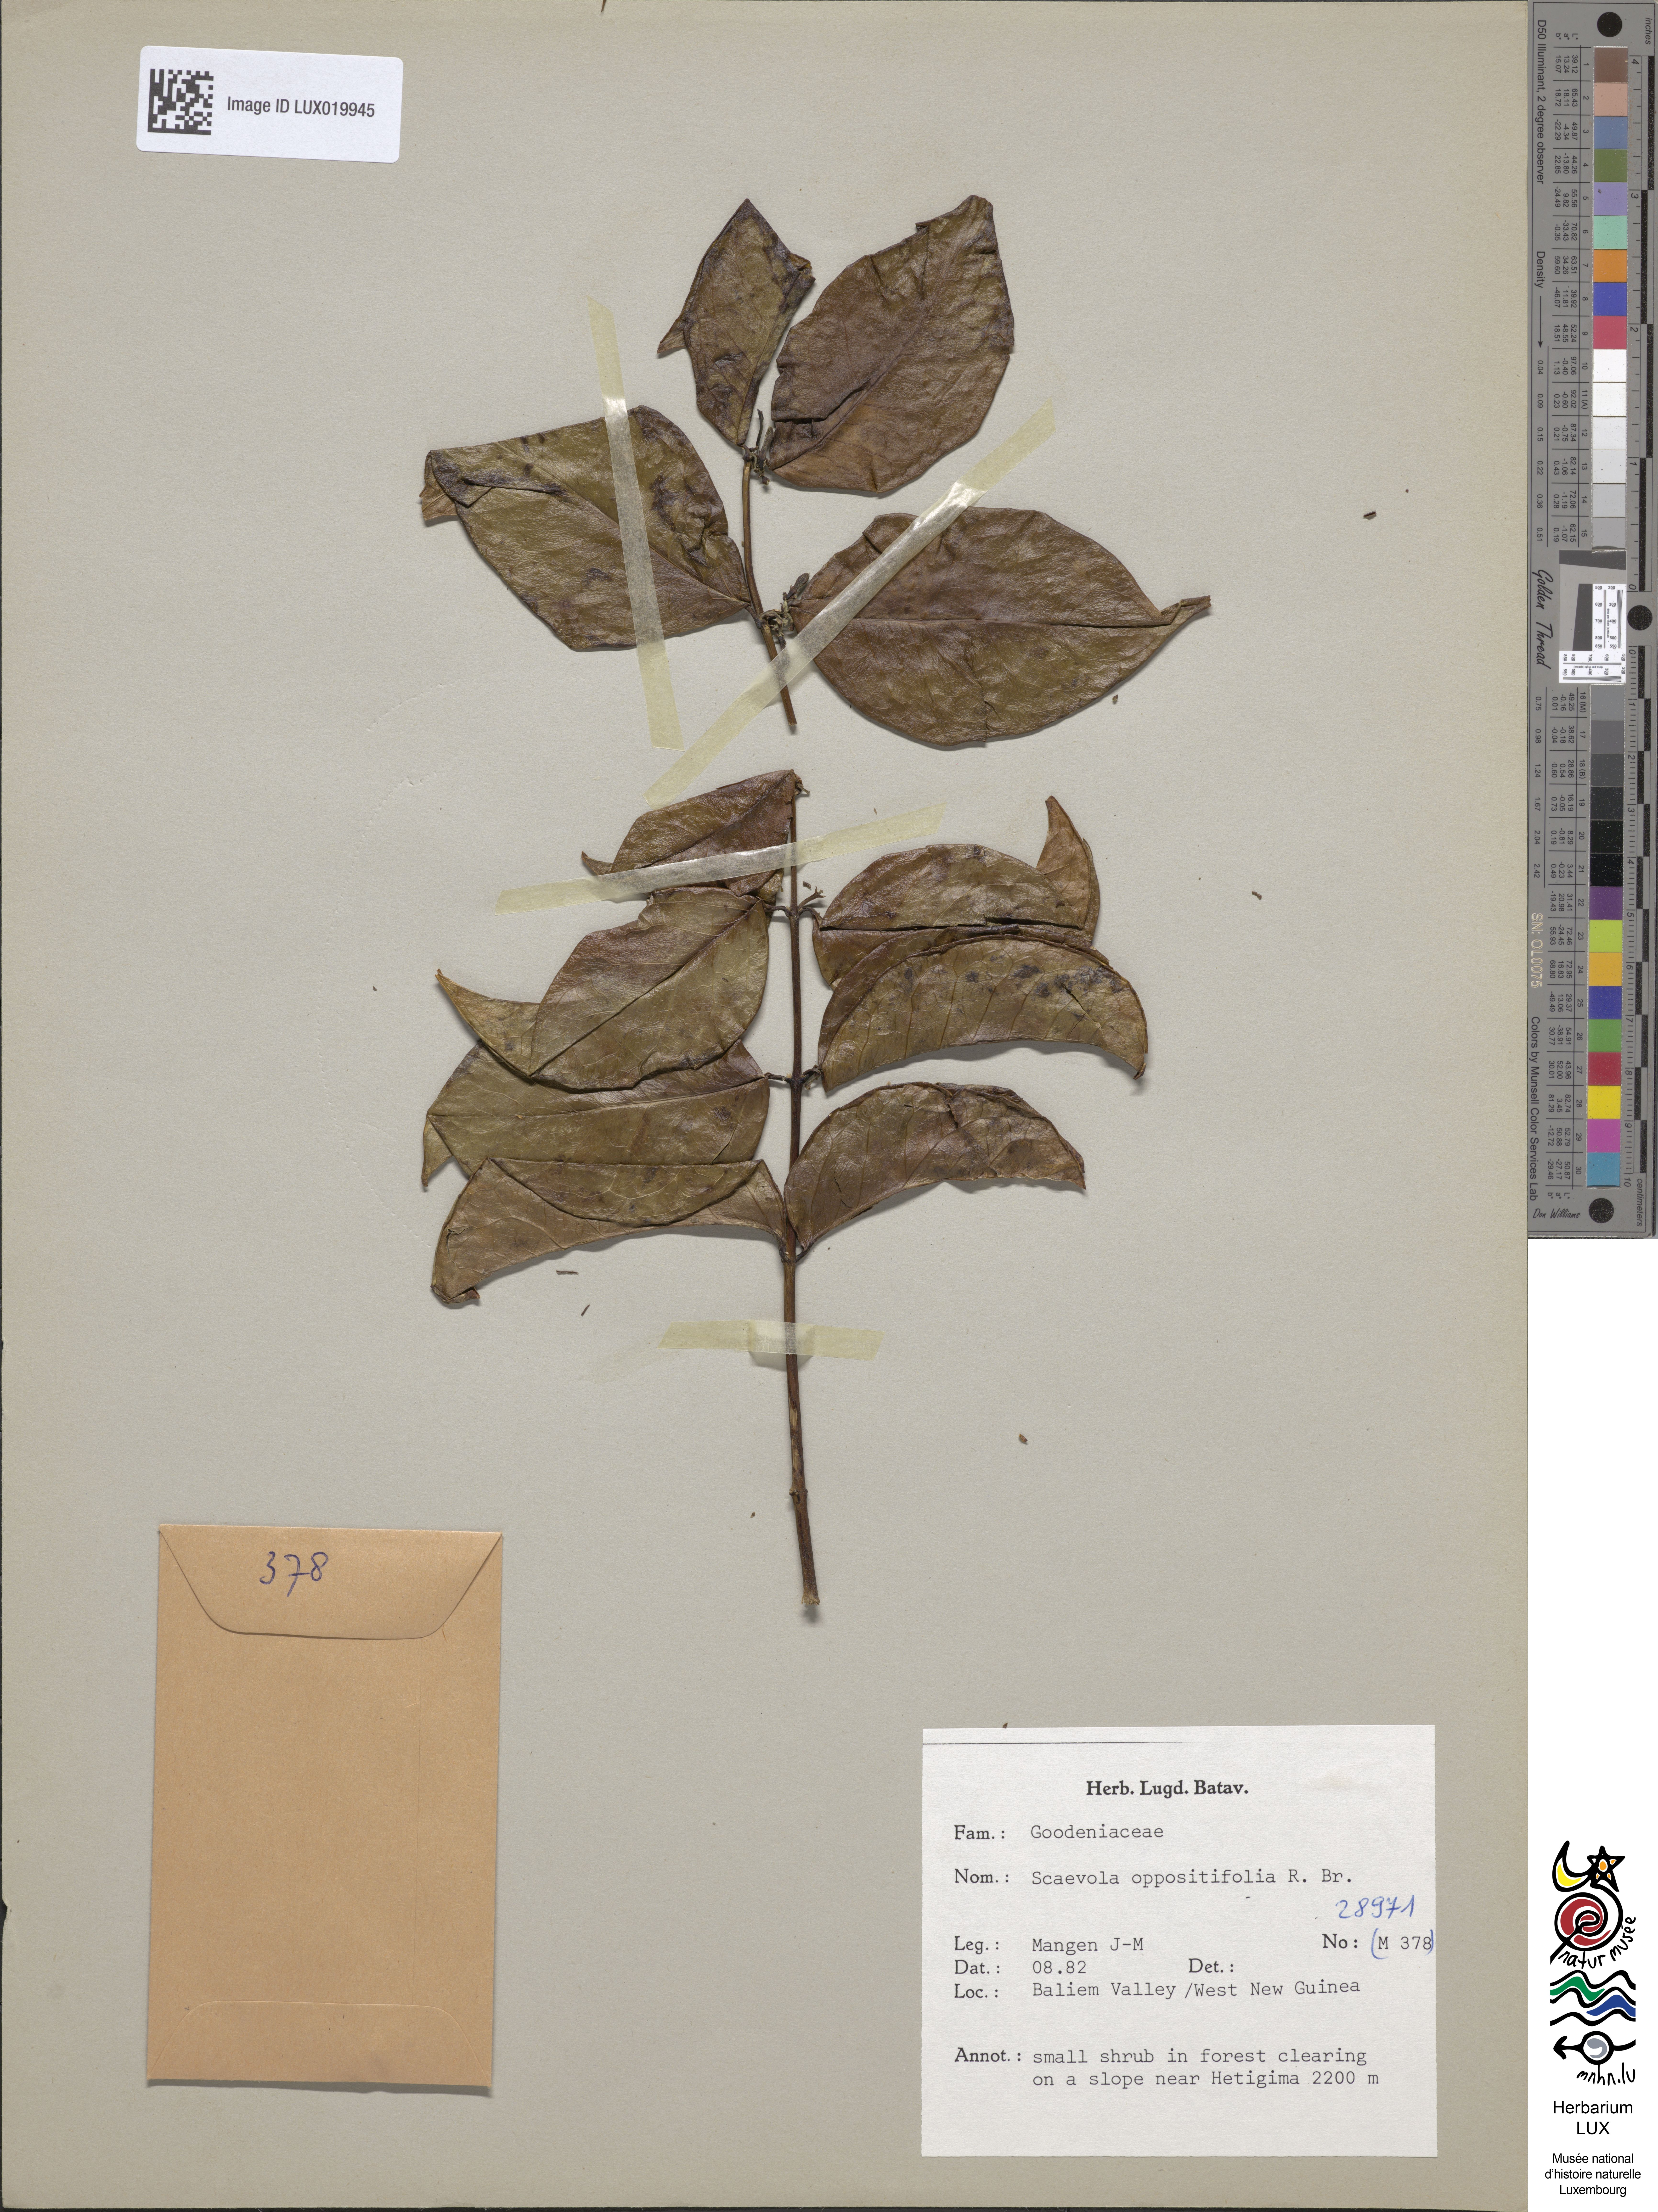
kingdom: Plantae
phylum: Tracheophyta
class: Magnoliopsida
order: Asterales
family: Goodeniaceae
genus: Scaevola
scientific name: Scaevola oppositifolia
